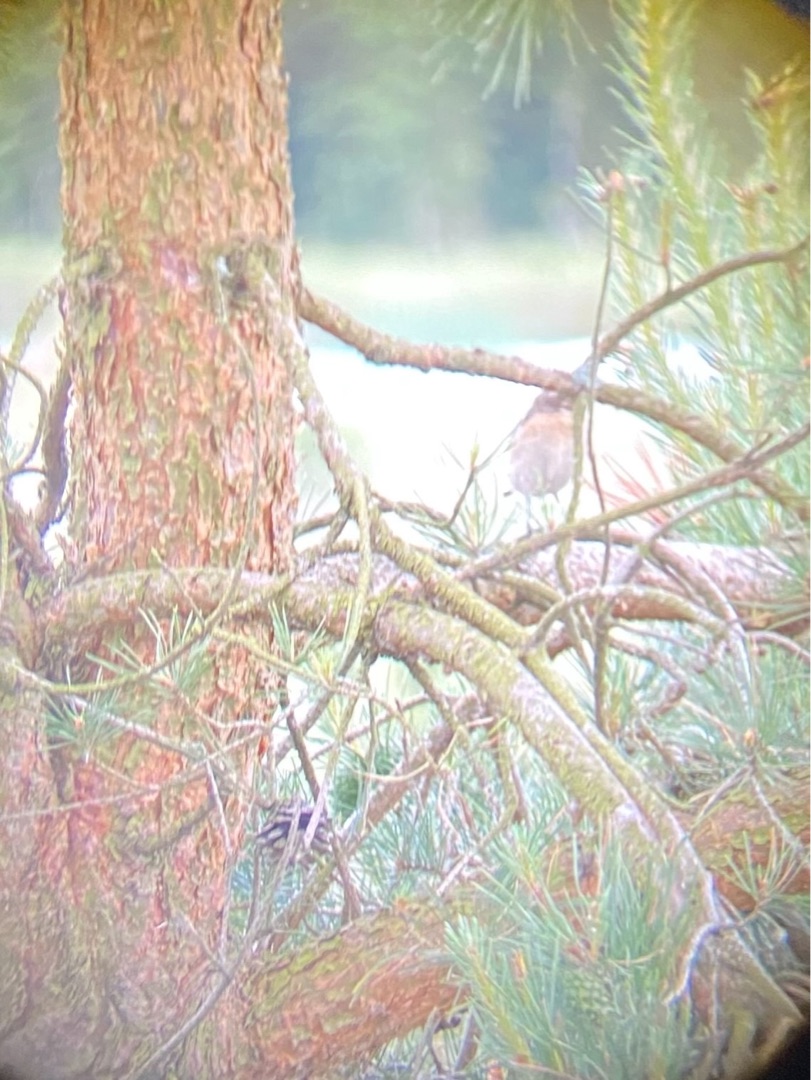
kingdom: Animalia
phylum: Chordata
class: Aves
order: Passeriformes
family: Muscicapidae
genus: Saxicola
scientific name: Saxicola rubetra
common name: Bynkefugl
